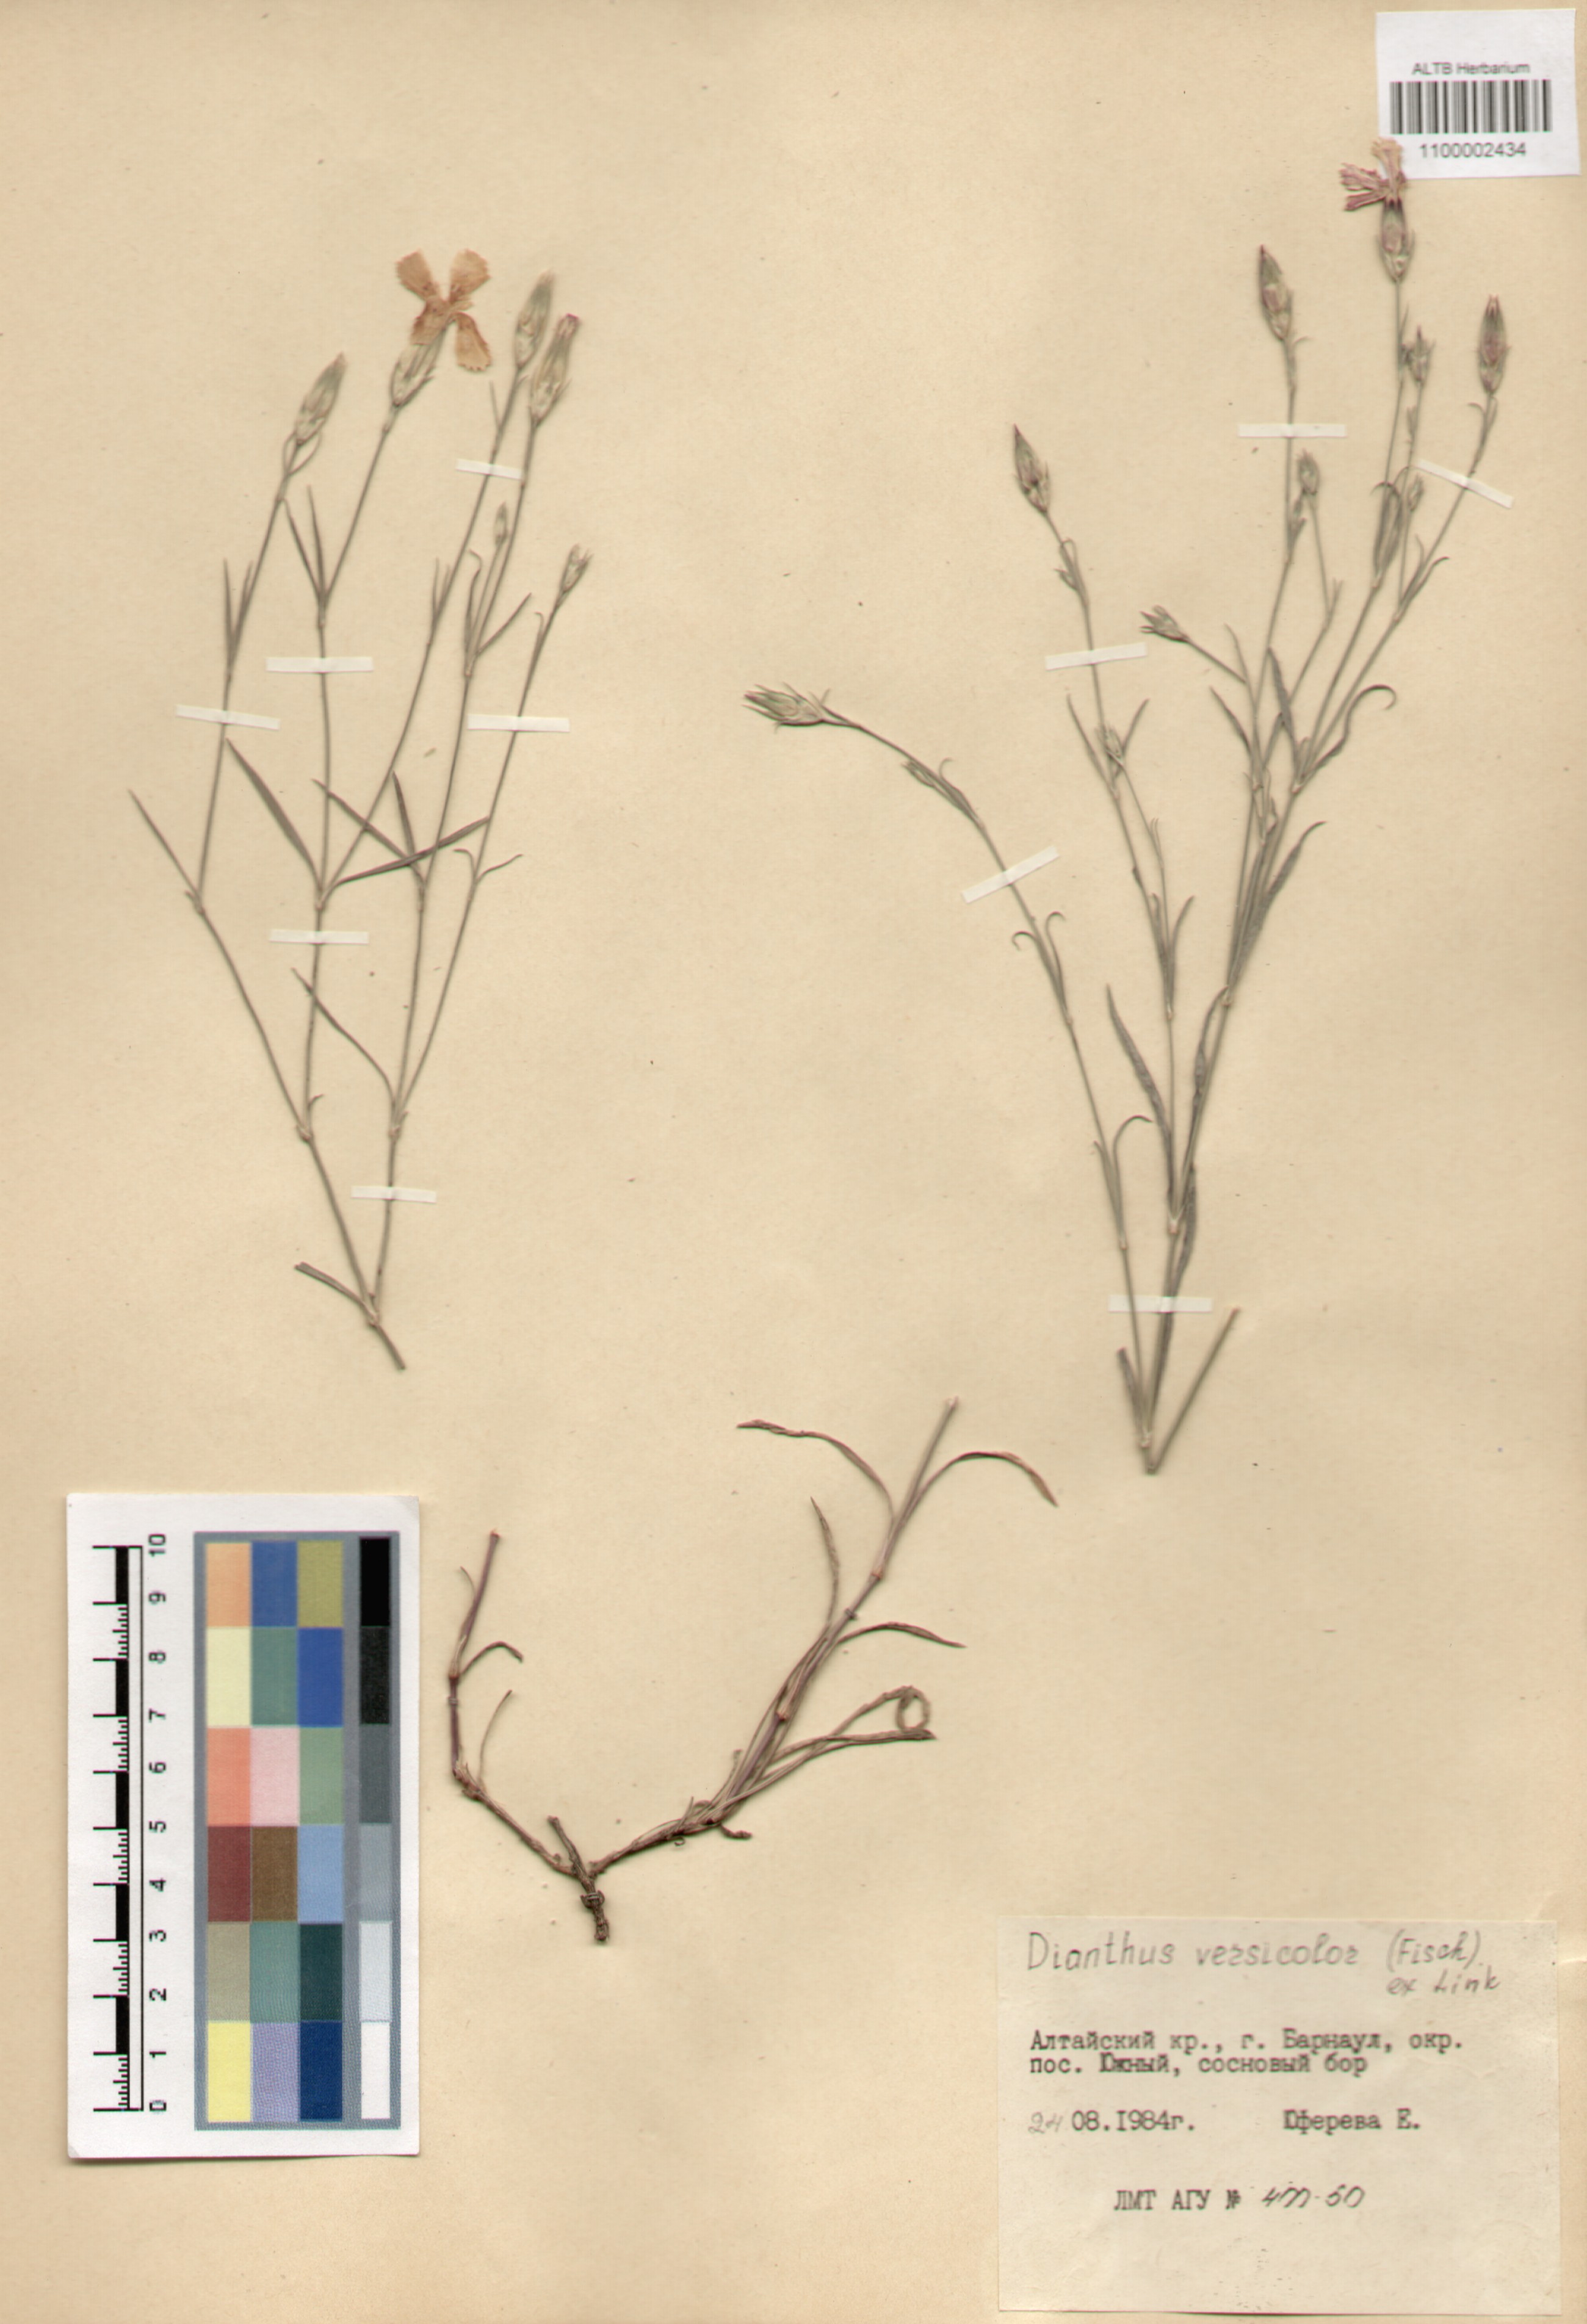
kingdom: Plantae
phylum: Tracheophyta
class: Magnoliopsida
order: Caryophyllales
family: Caryophyllaceae
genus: Dianthus
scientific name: Dianthus chinensis
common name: Rainbow pink
